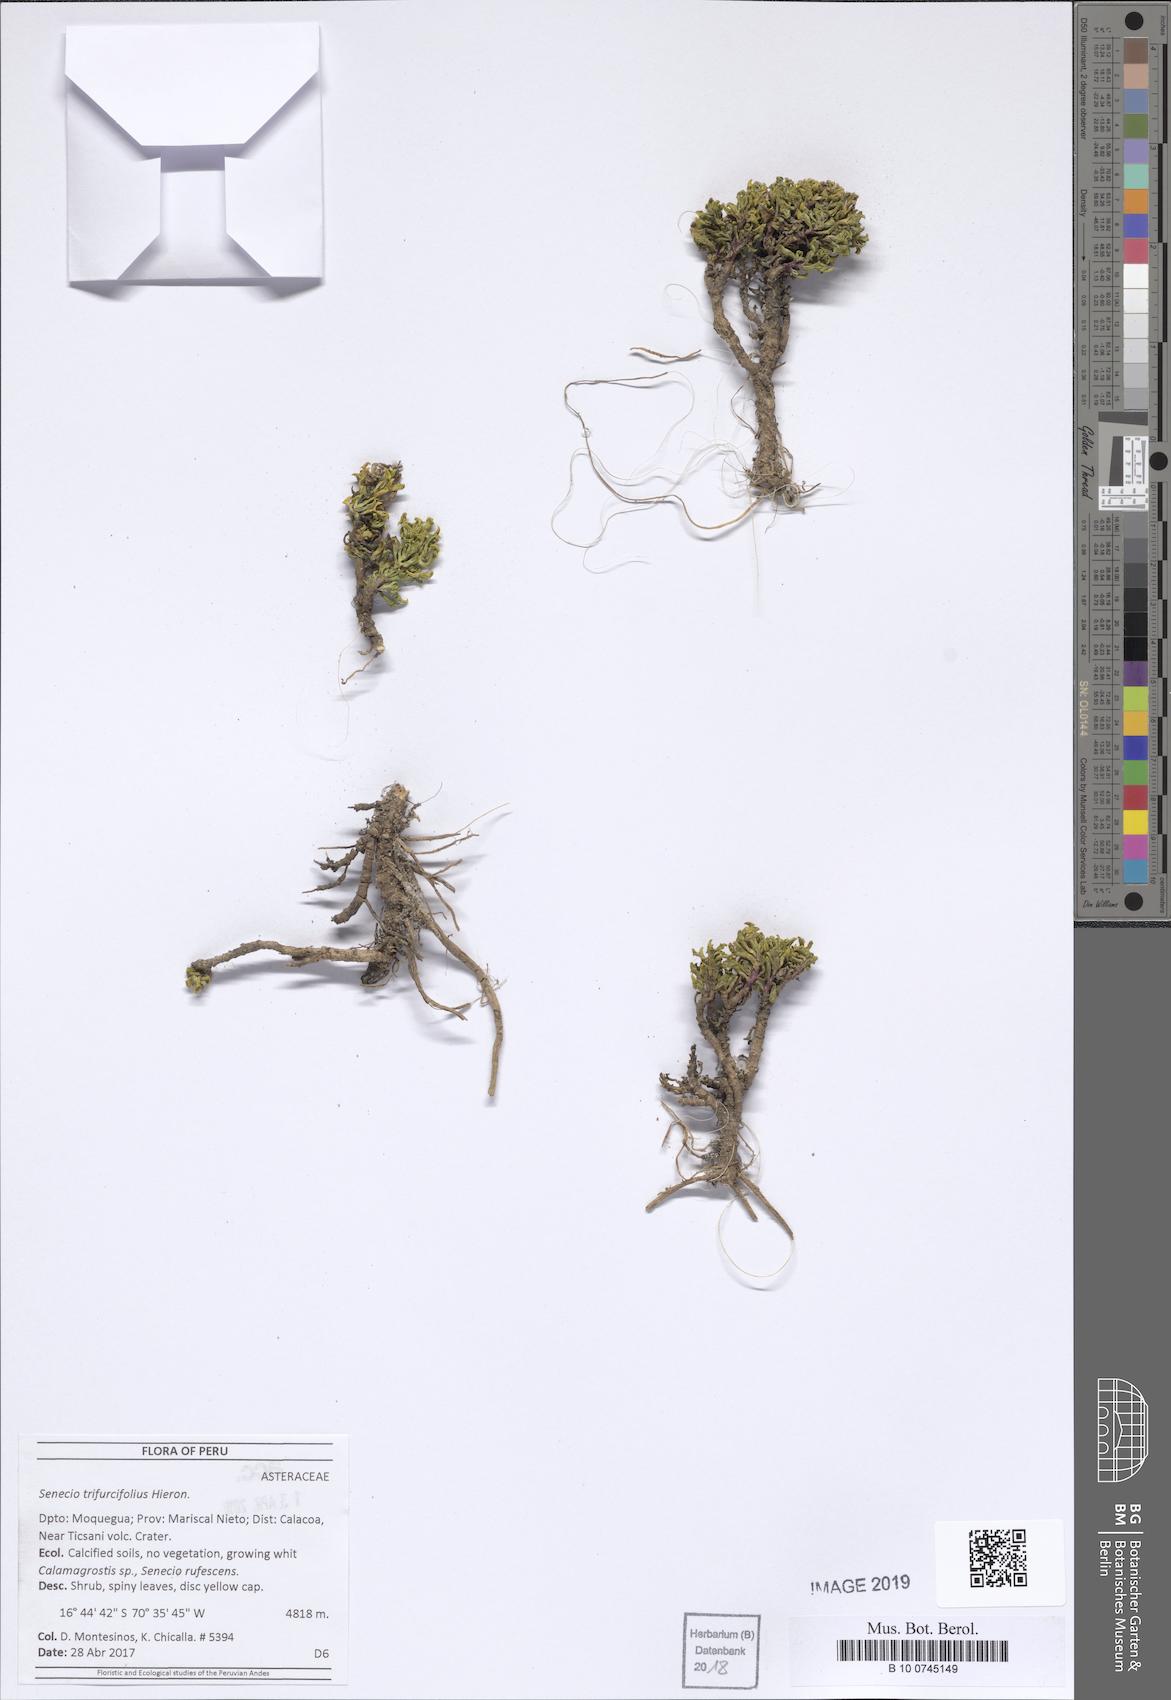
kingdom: Plantae
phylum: Tracheophyta
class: Magnoliopsida
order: Asterales
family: Asteraceae
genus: Senecio
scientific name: Senecio trifurcifolius
